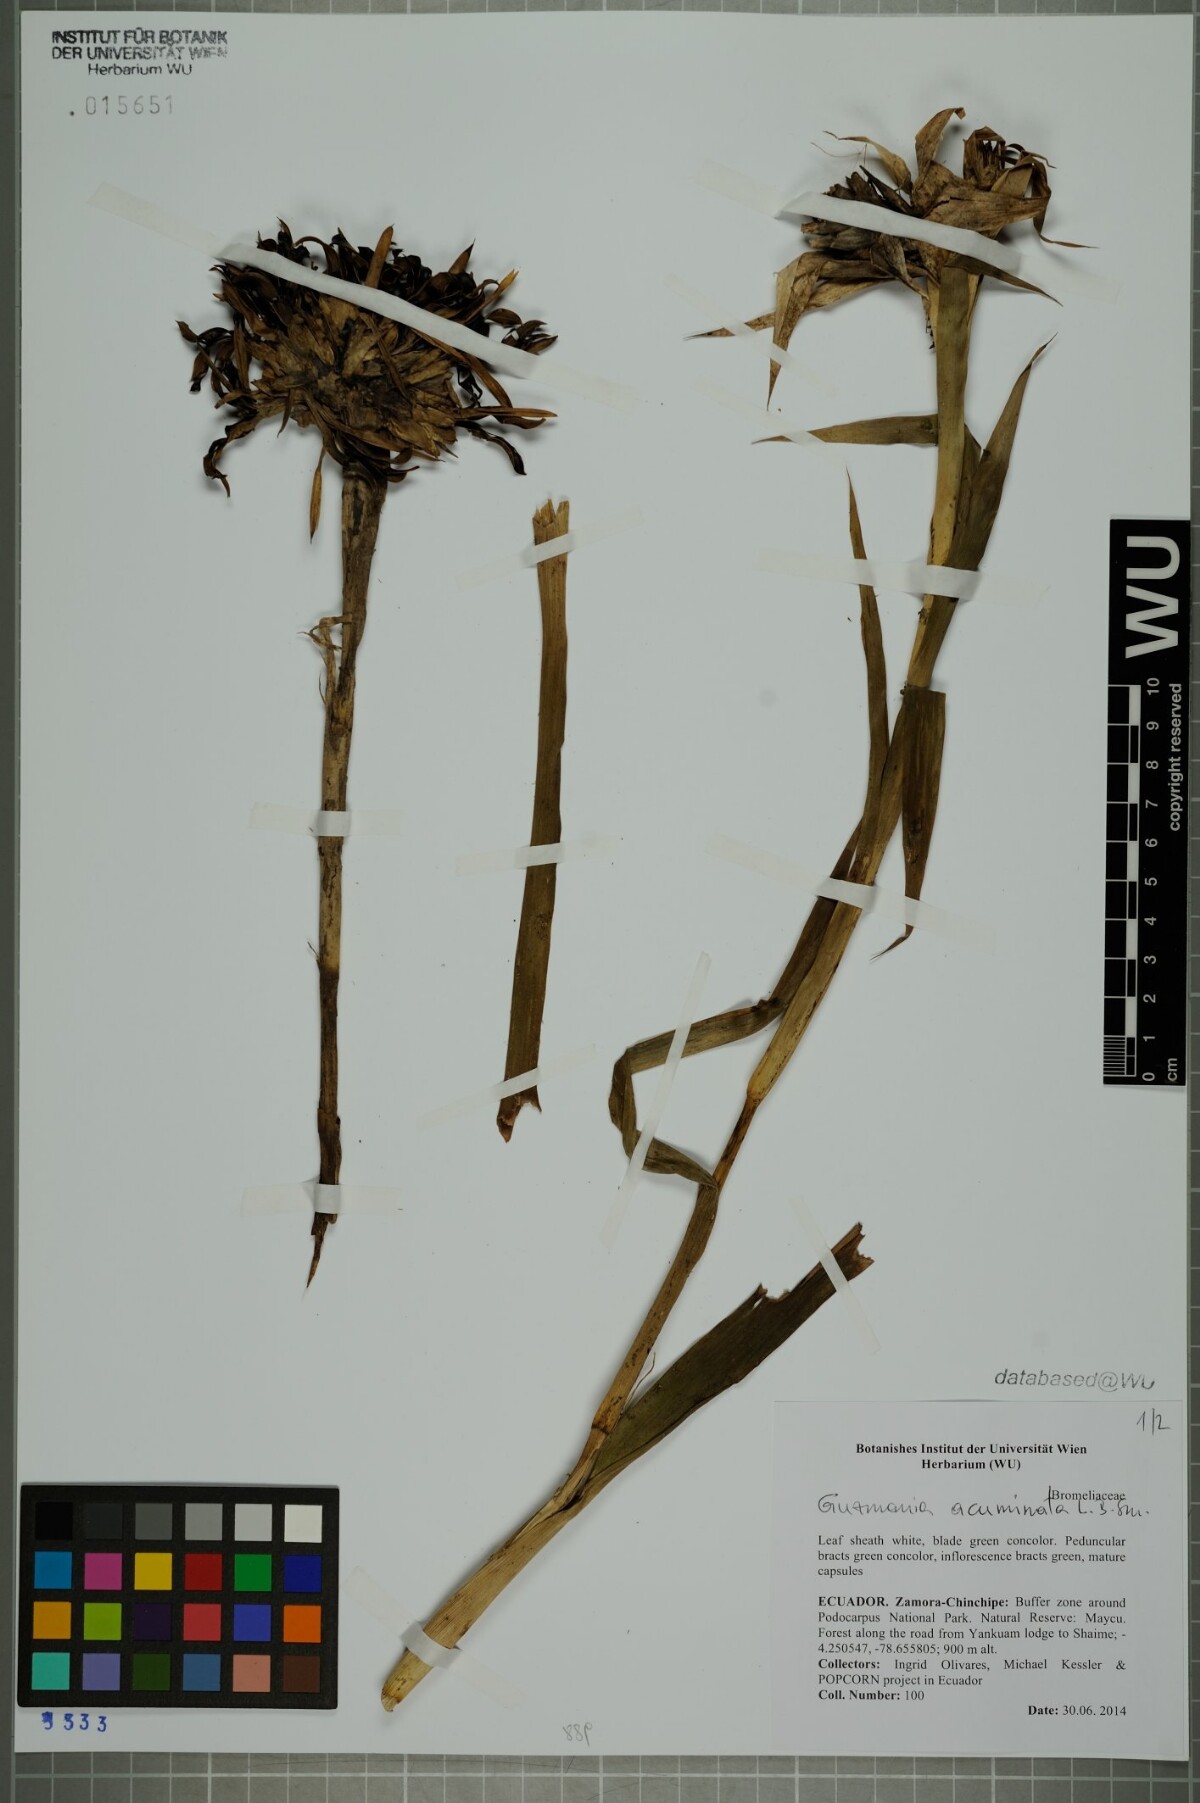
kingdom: Plantae
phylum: Tracheophyta
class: Liliopsida
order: Poales
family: Bromeliaceae
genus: Guzmania
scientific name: Guzmania acuminata
